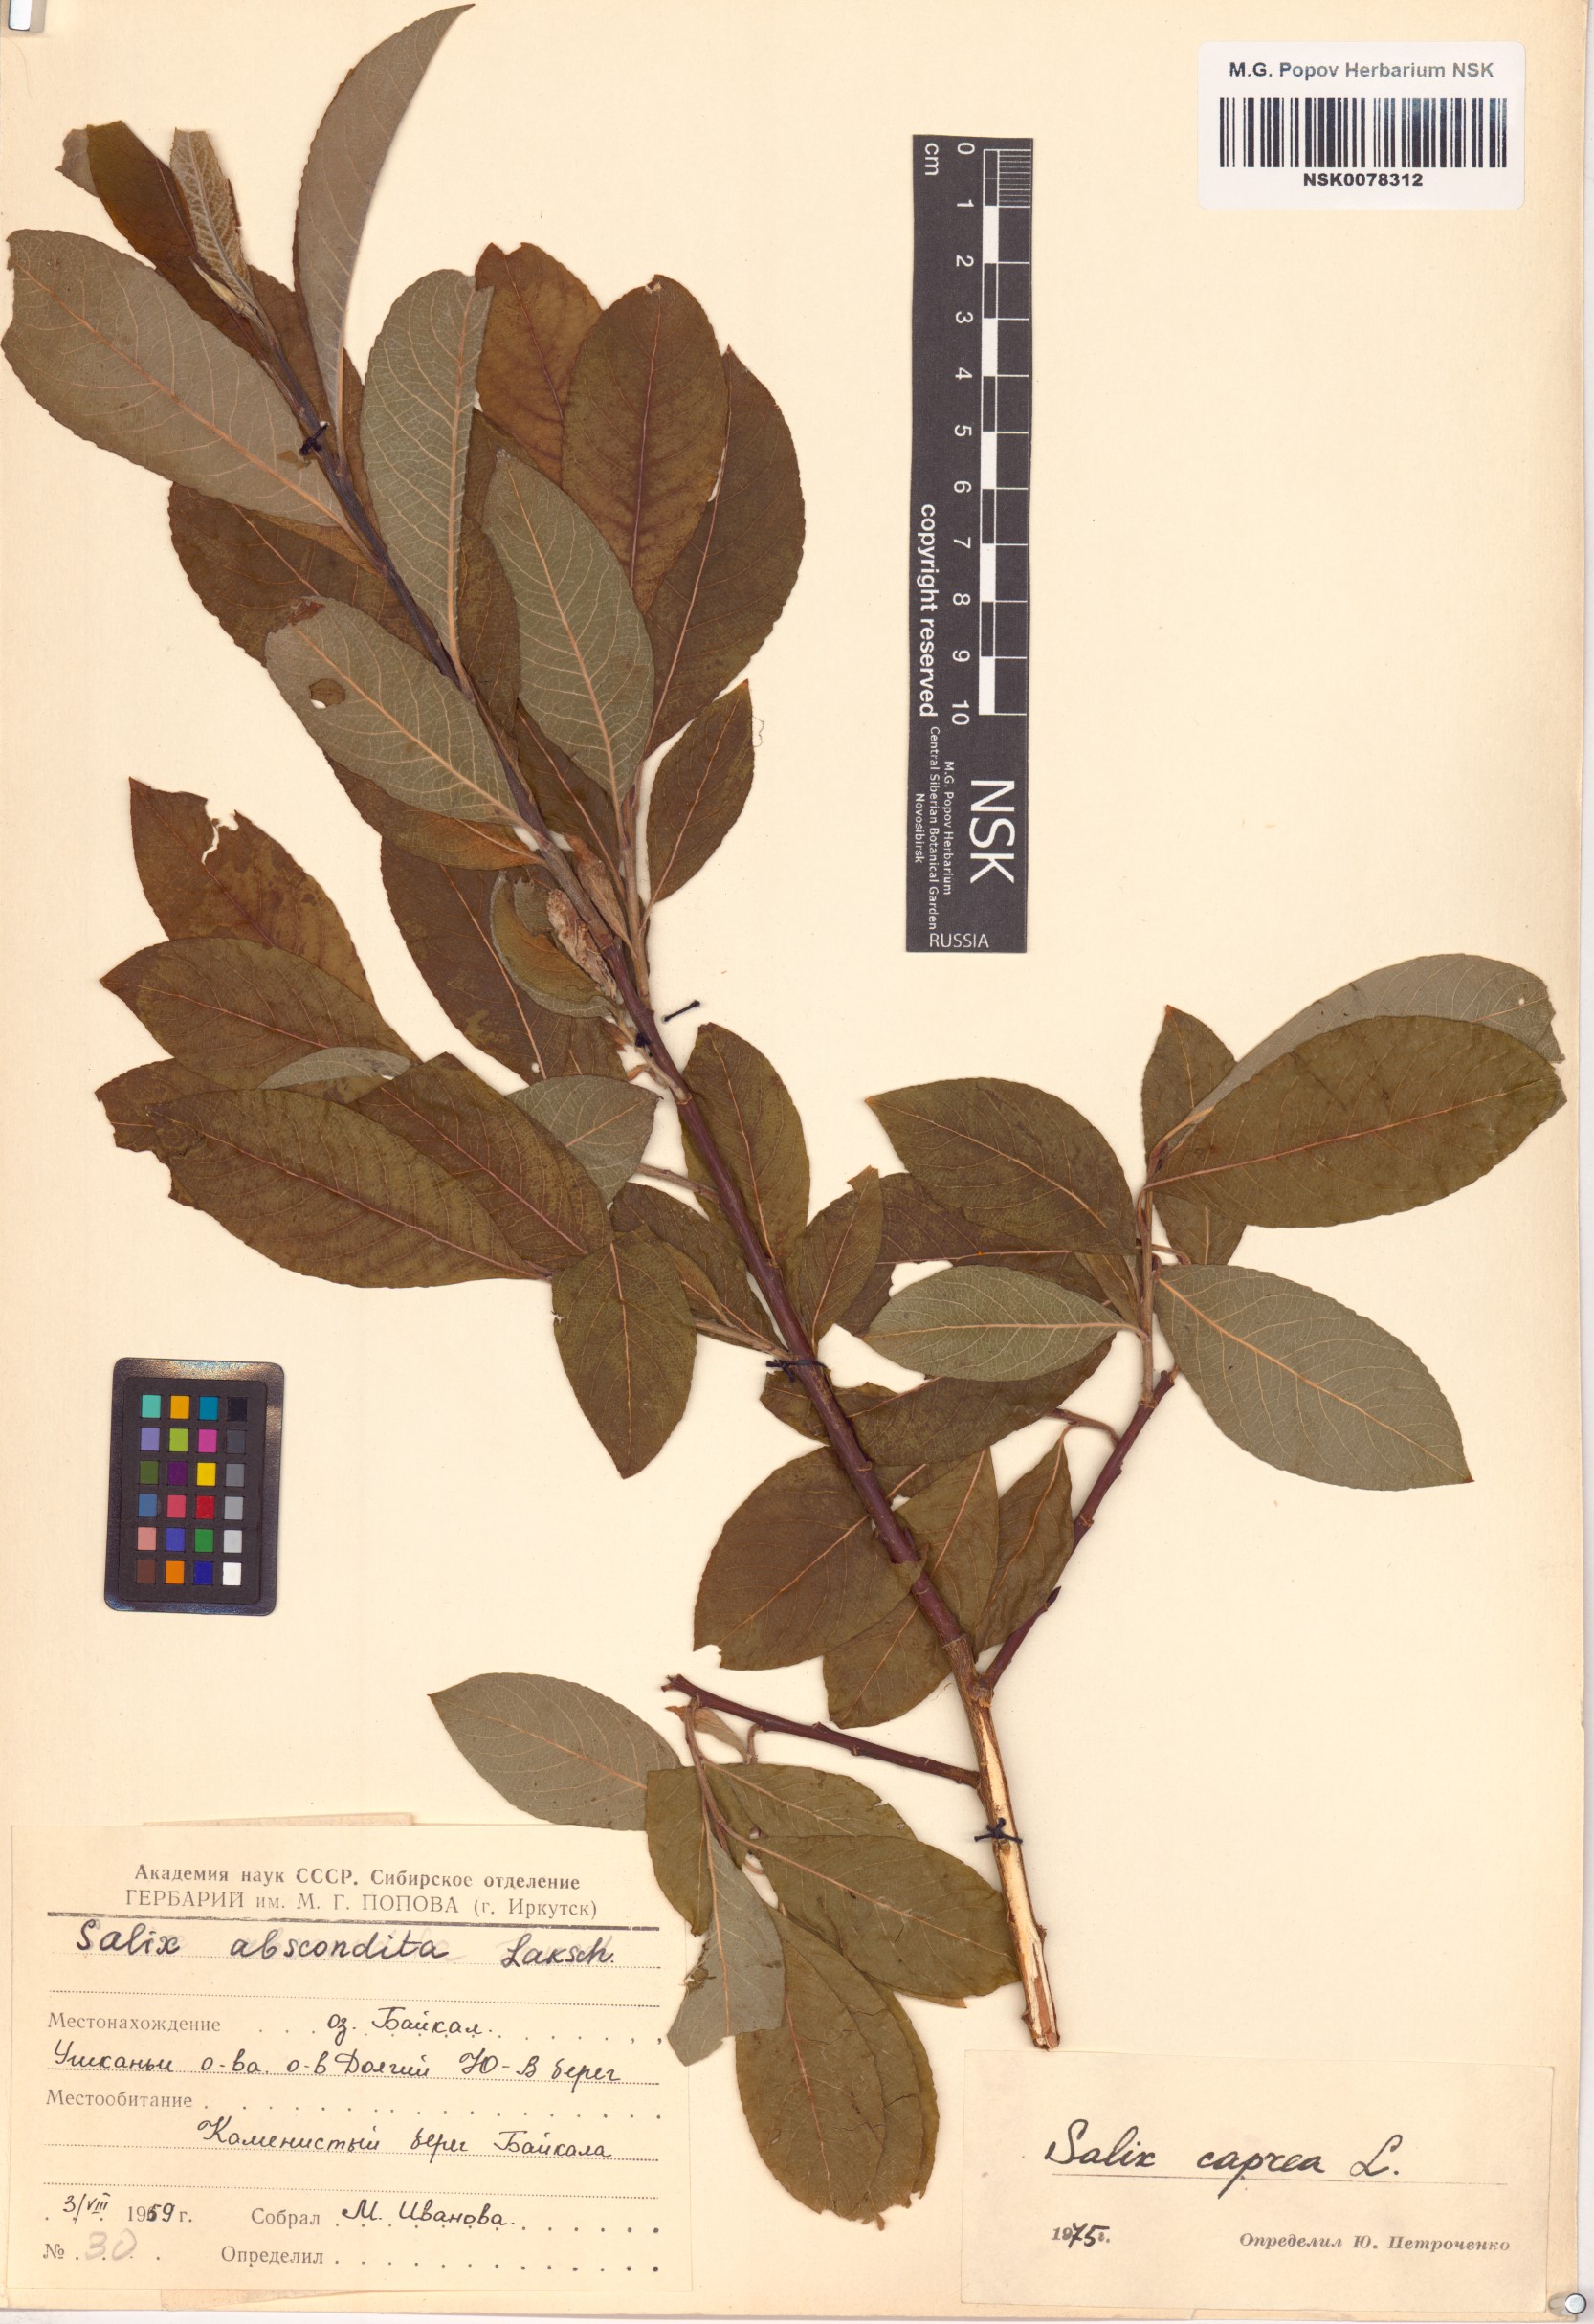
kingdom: Plantae
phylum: Tracheophyta
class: Magnoliopsida
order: Malpighiales
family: Salicaceae
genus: Salix
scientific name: Salix caprea
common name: Goat willow
